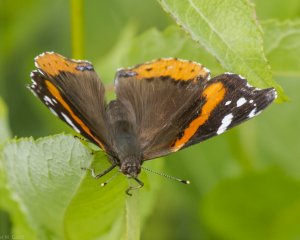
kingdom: Animalia
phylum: Arthropoda
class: Insecta
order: Lepidoptera
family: Nymphalidae
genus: Vanessa
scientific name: Vanessa atalanta
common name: Red Admiral
